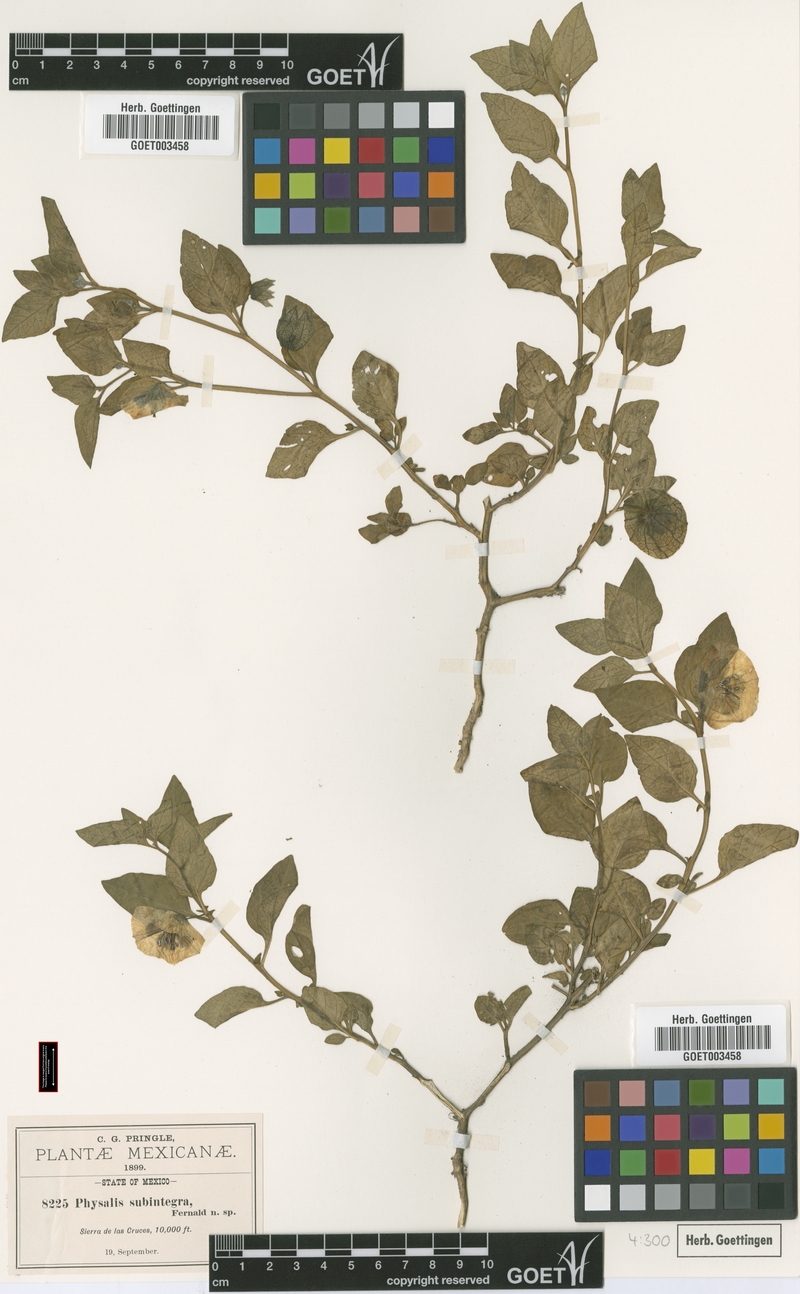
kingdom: Plantae
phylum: Tracheophyta
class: Magnoliopsida
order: Solanales
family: Solanaceae
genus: Physalis
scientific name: Physalis orizabae
